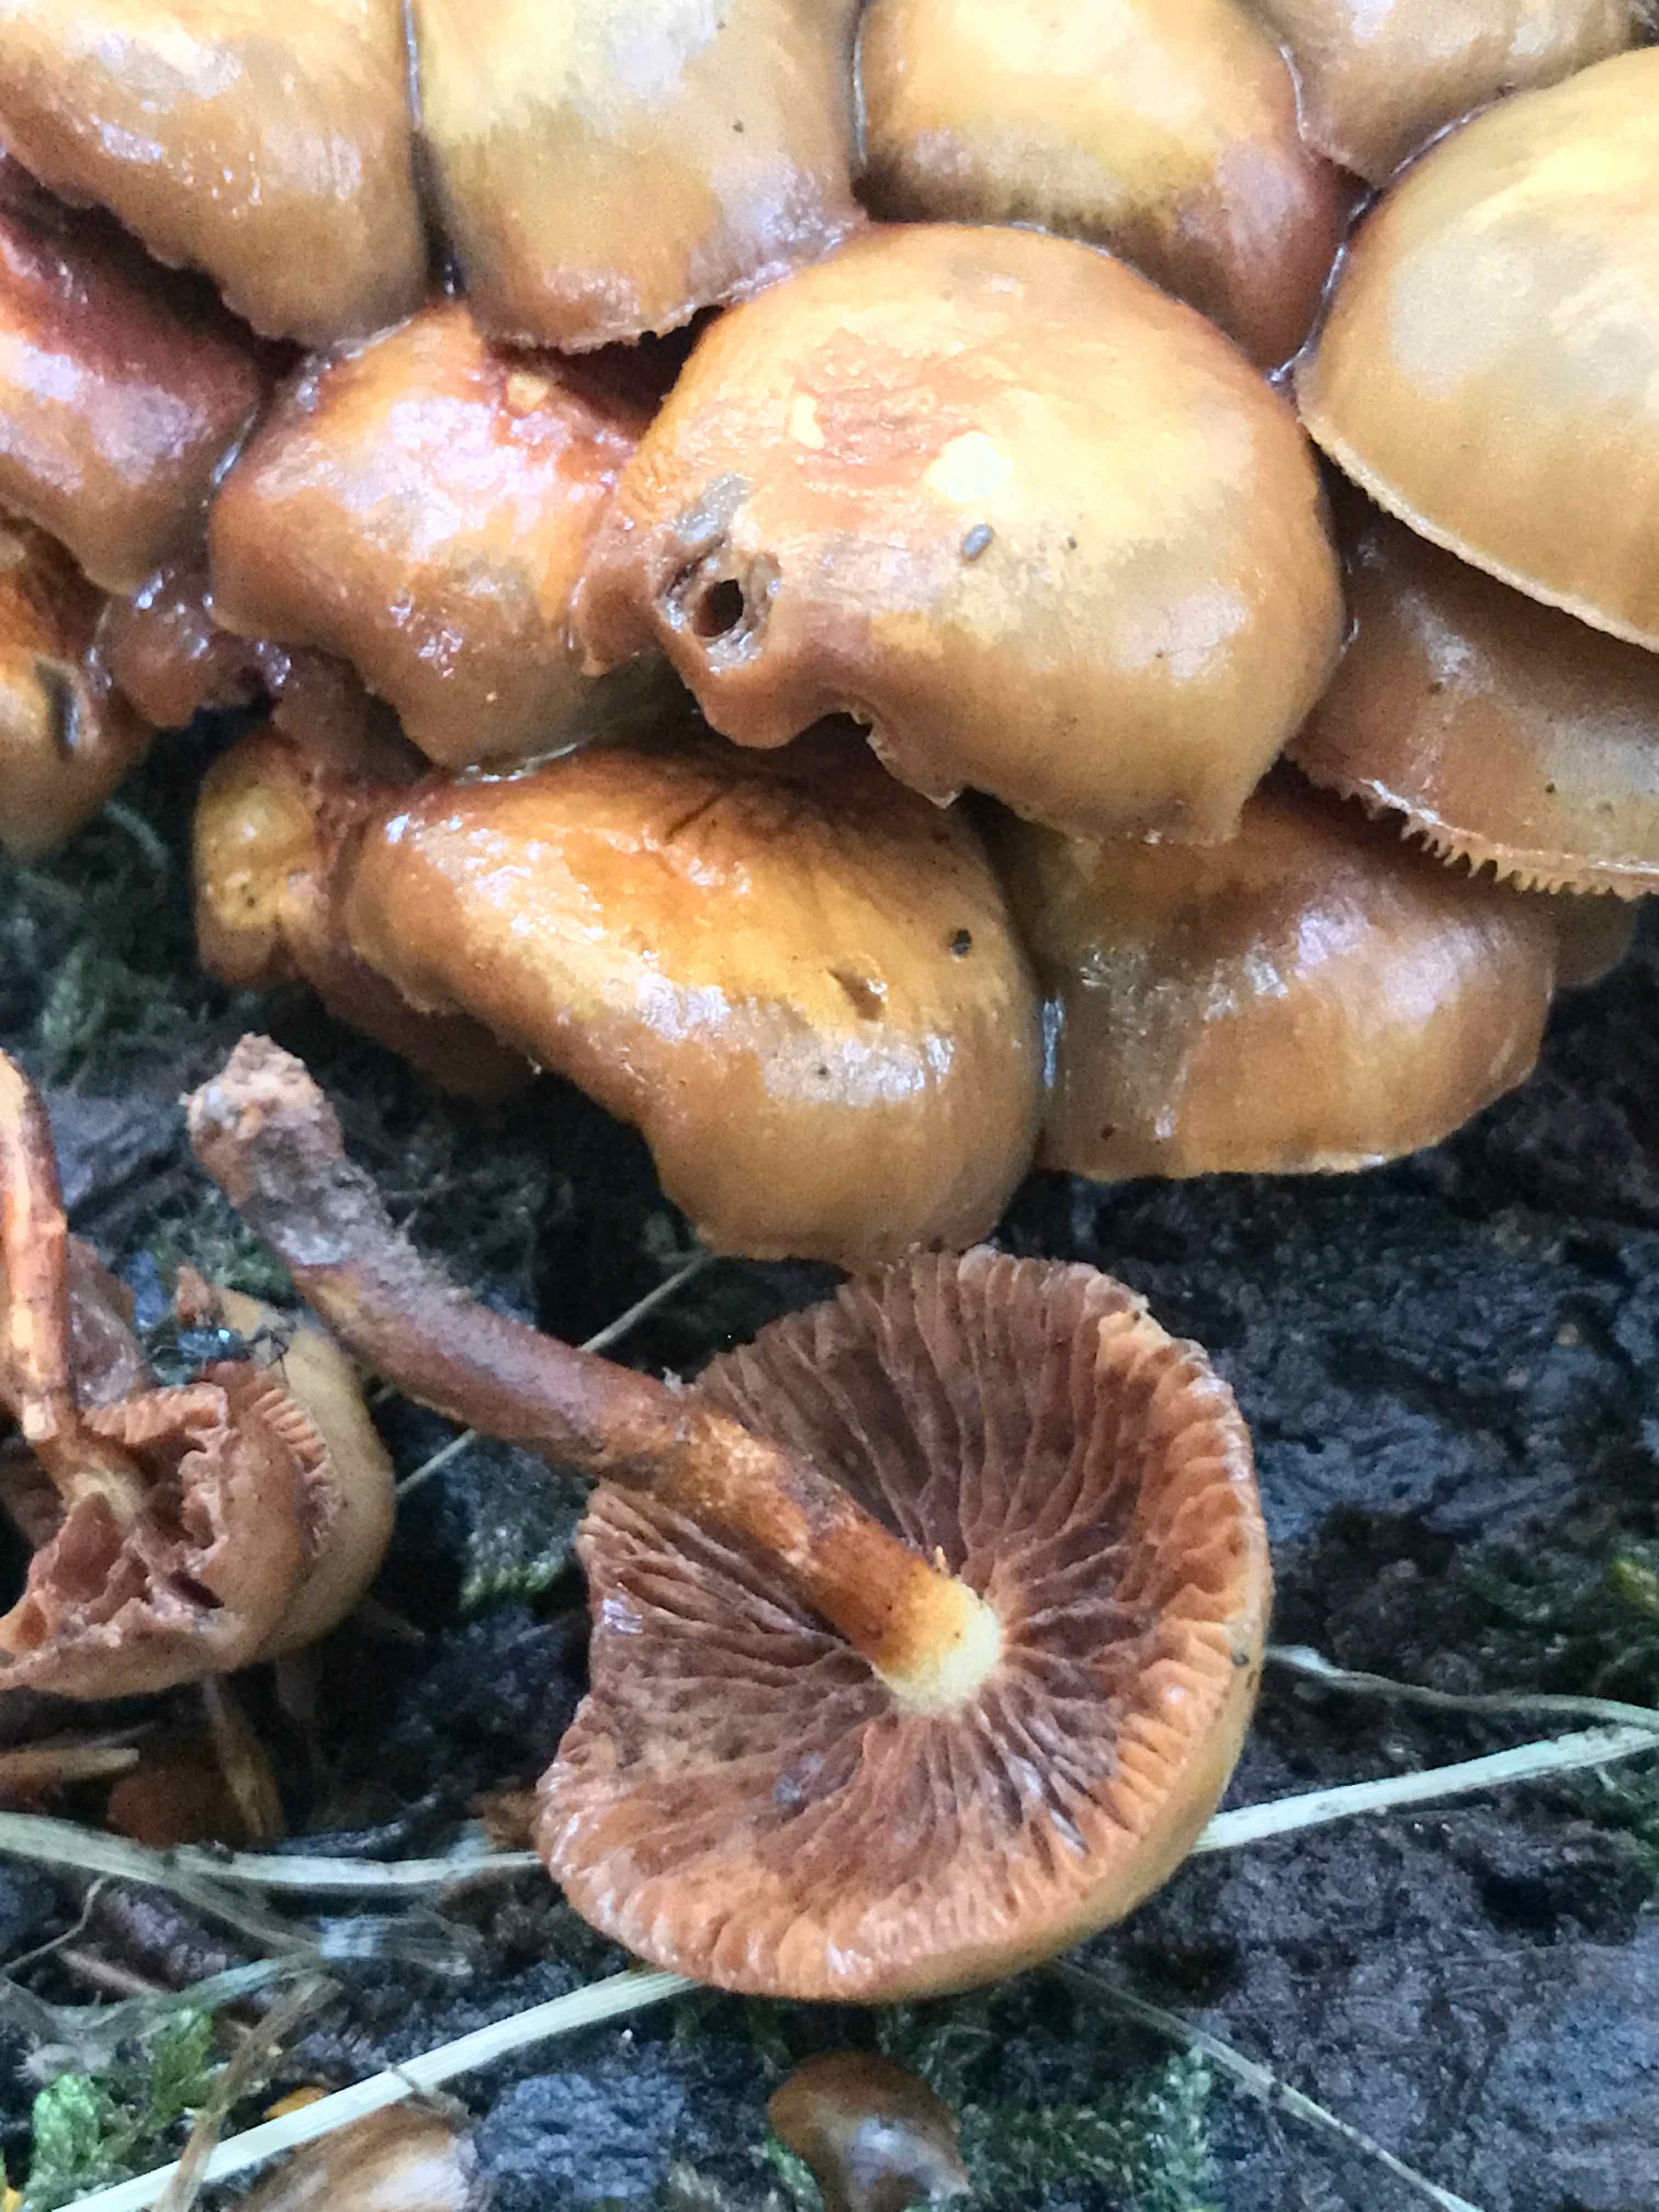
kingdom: Fungi
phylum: Basidiomycota
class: Agaricomycetes
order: Agaricales
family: Strophariaceae
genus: Kuehneromyces
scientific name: Kuehneromyces mutabilis
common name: foranderlig skælhat
